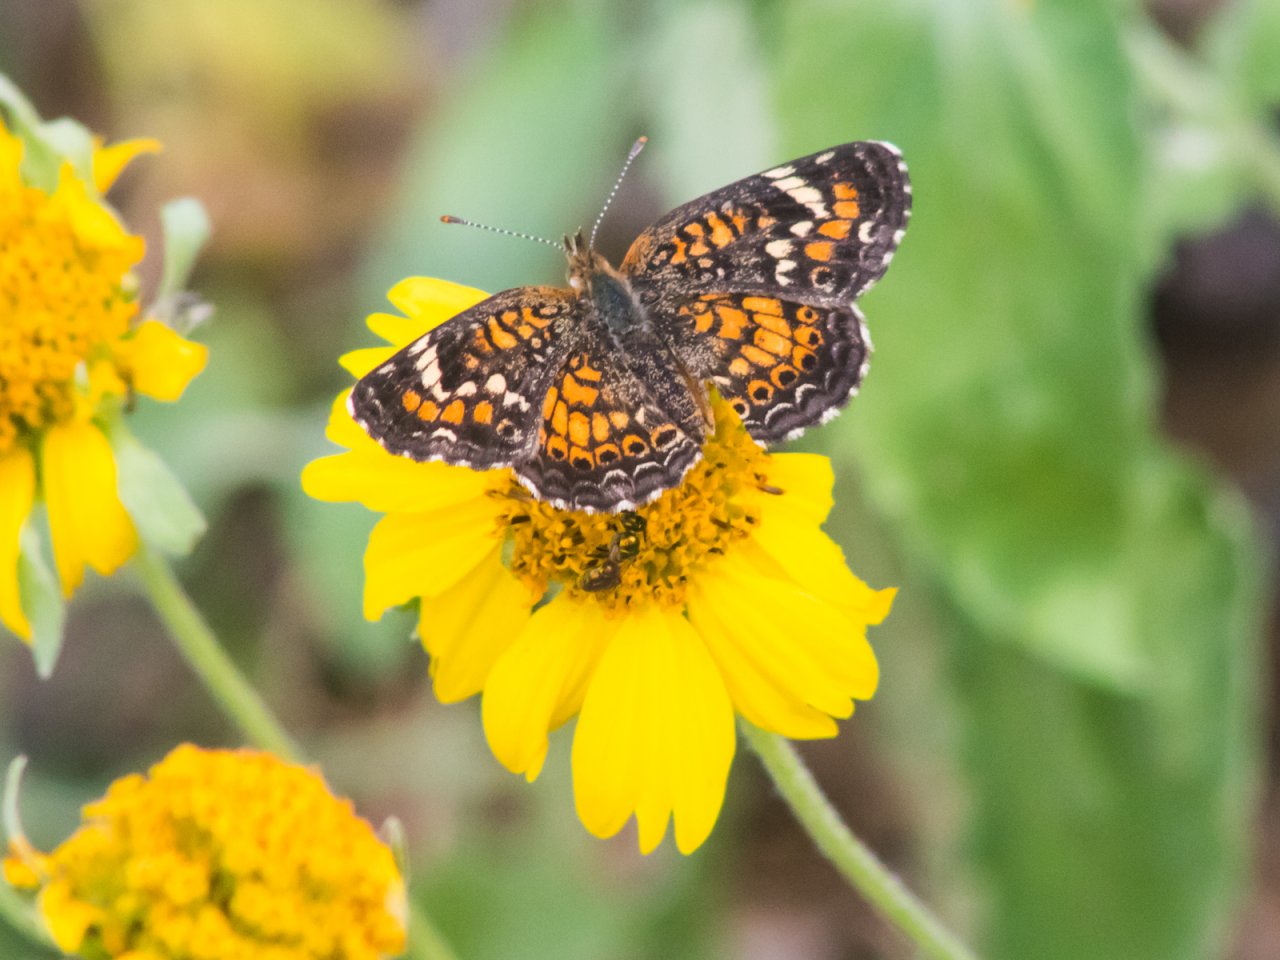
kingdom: Animalia
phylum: Arthropoda
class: Insecta
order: Lepidoptera
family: Nymphalidae
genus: Phyciodes
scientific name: Phyciodes phaon
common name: Phaon Crescent
